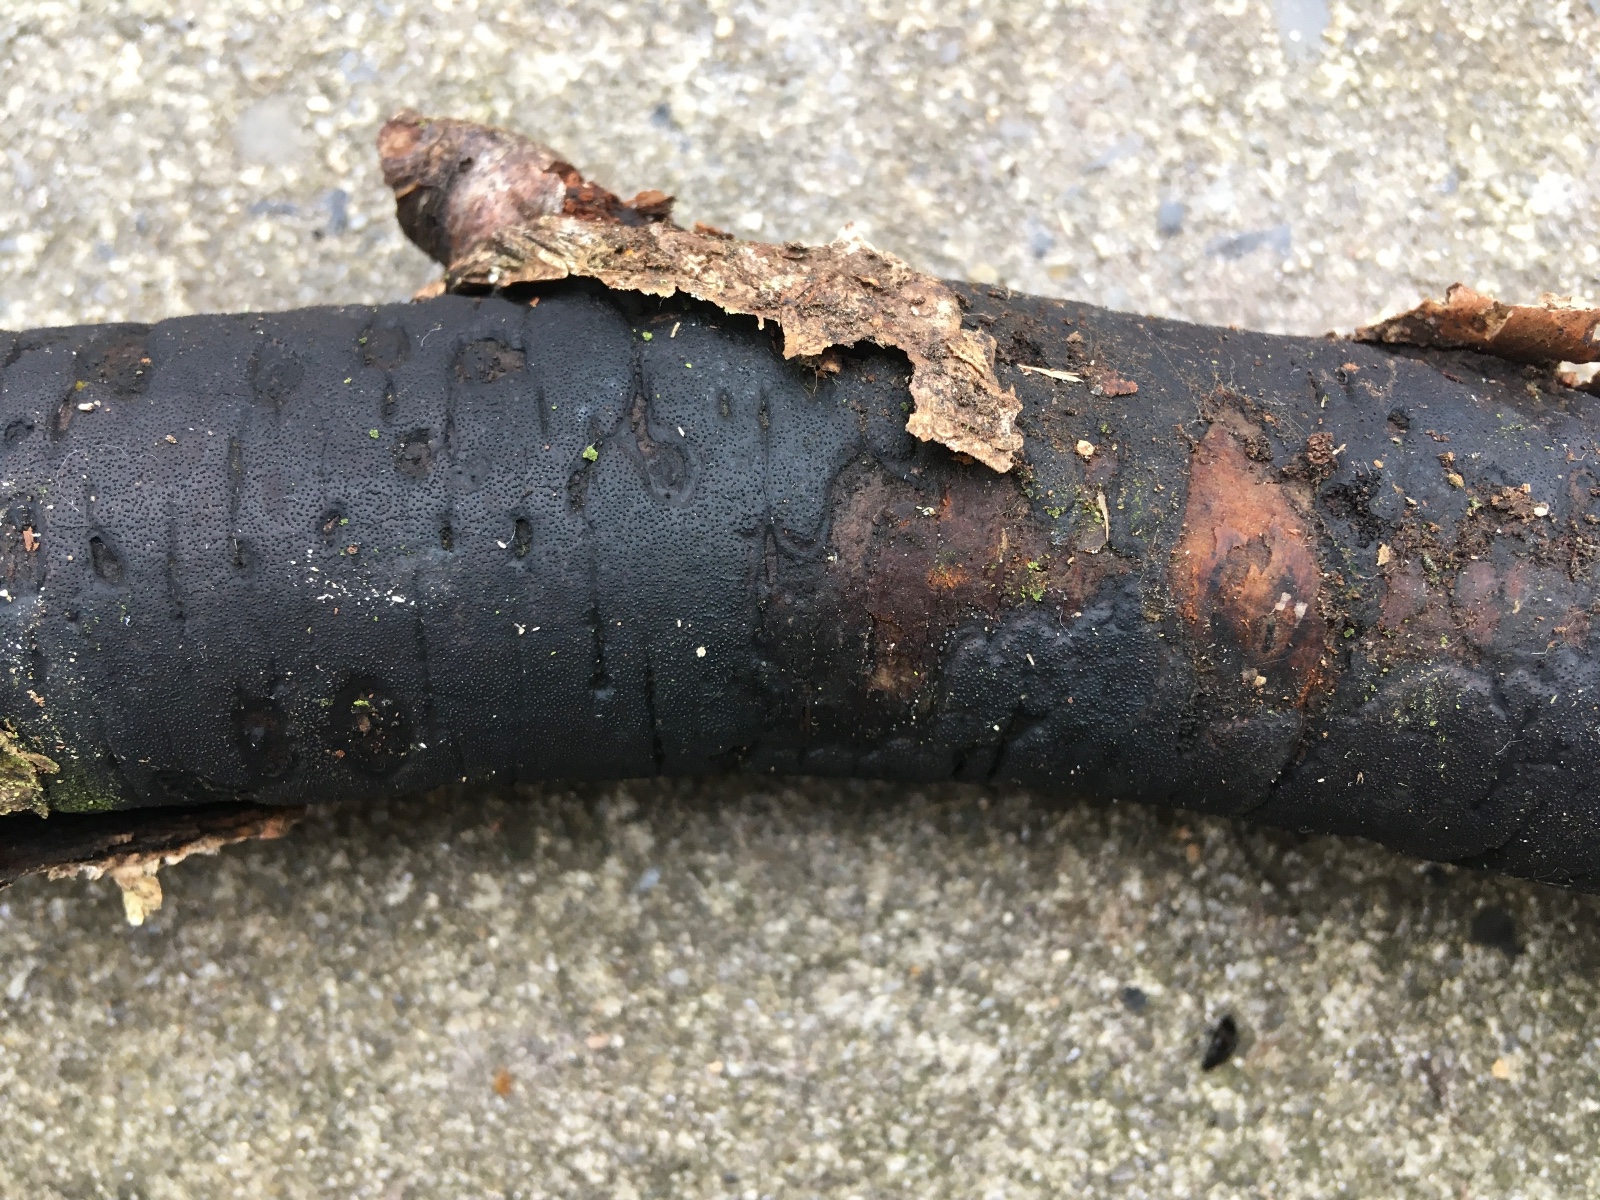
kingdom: Fungi
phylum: Ascomycota
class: Sordariomycetes
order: Xylariales
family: Diatrypaceae
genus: Diatrype
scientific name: Diatrype
